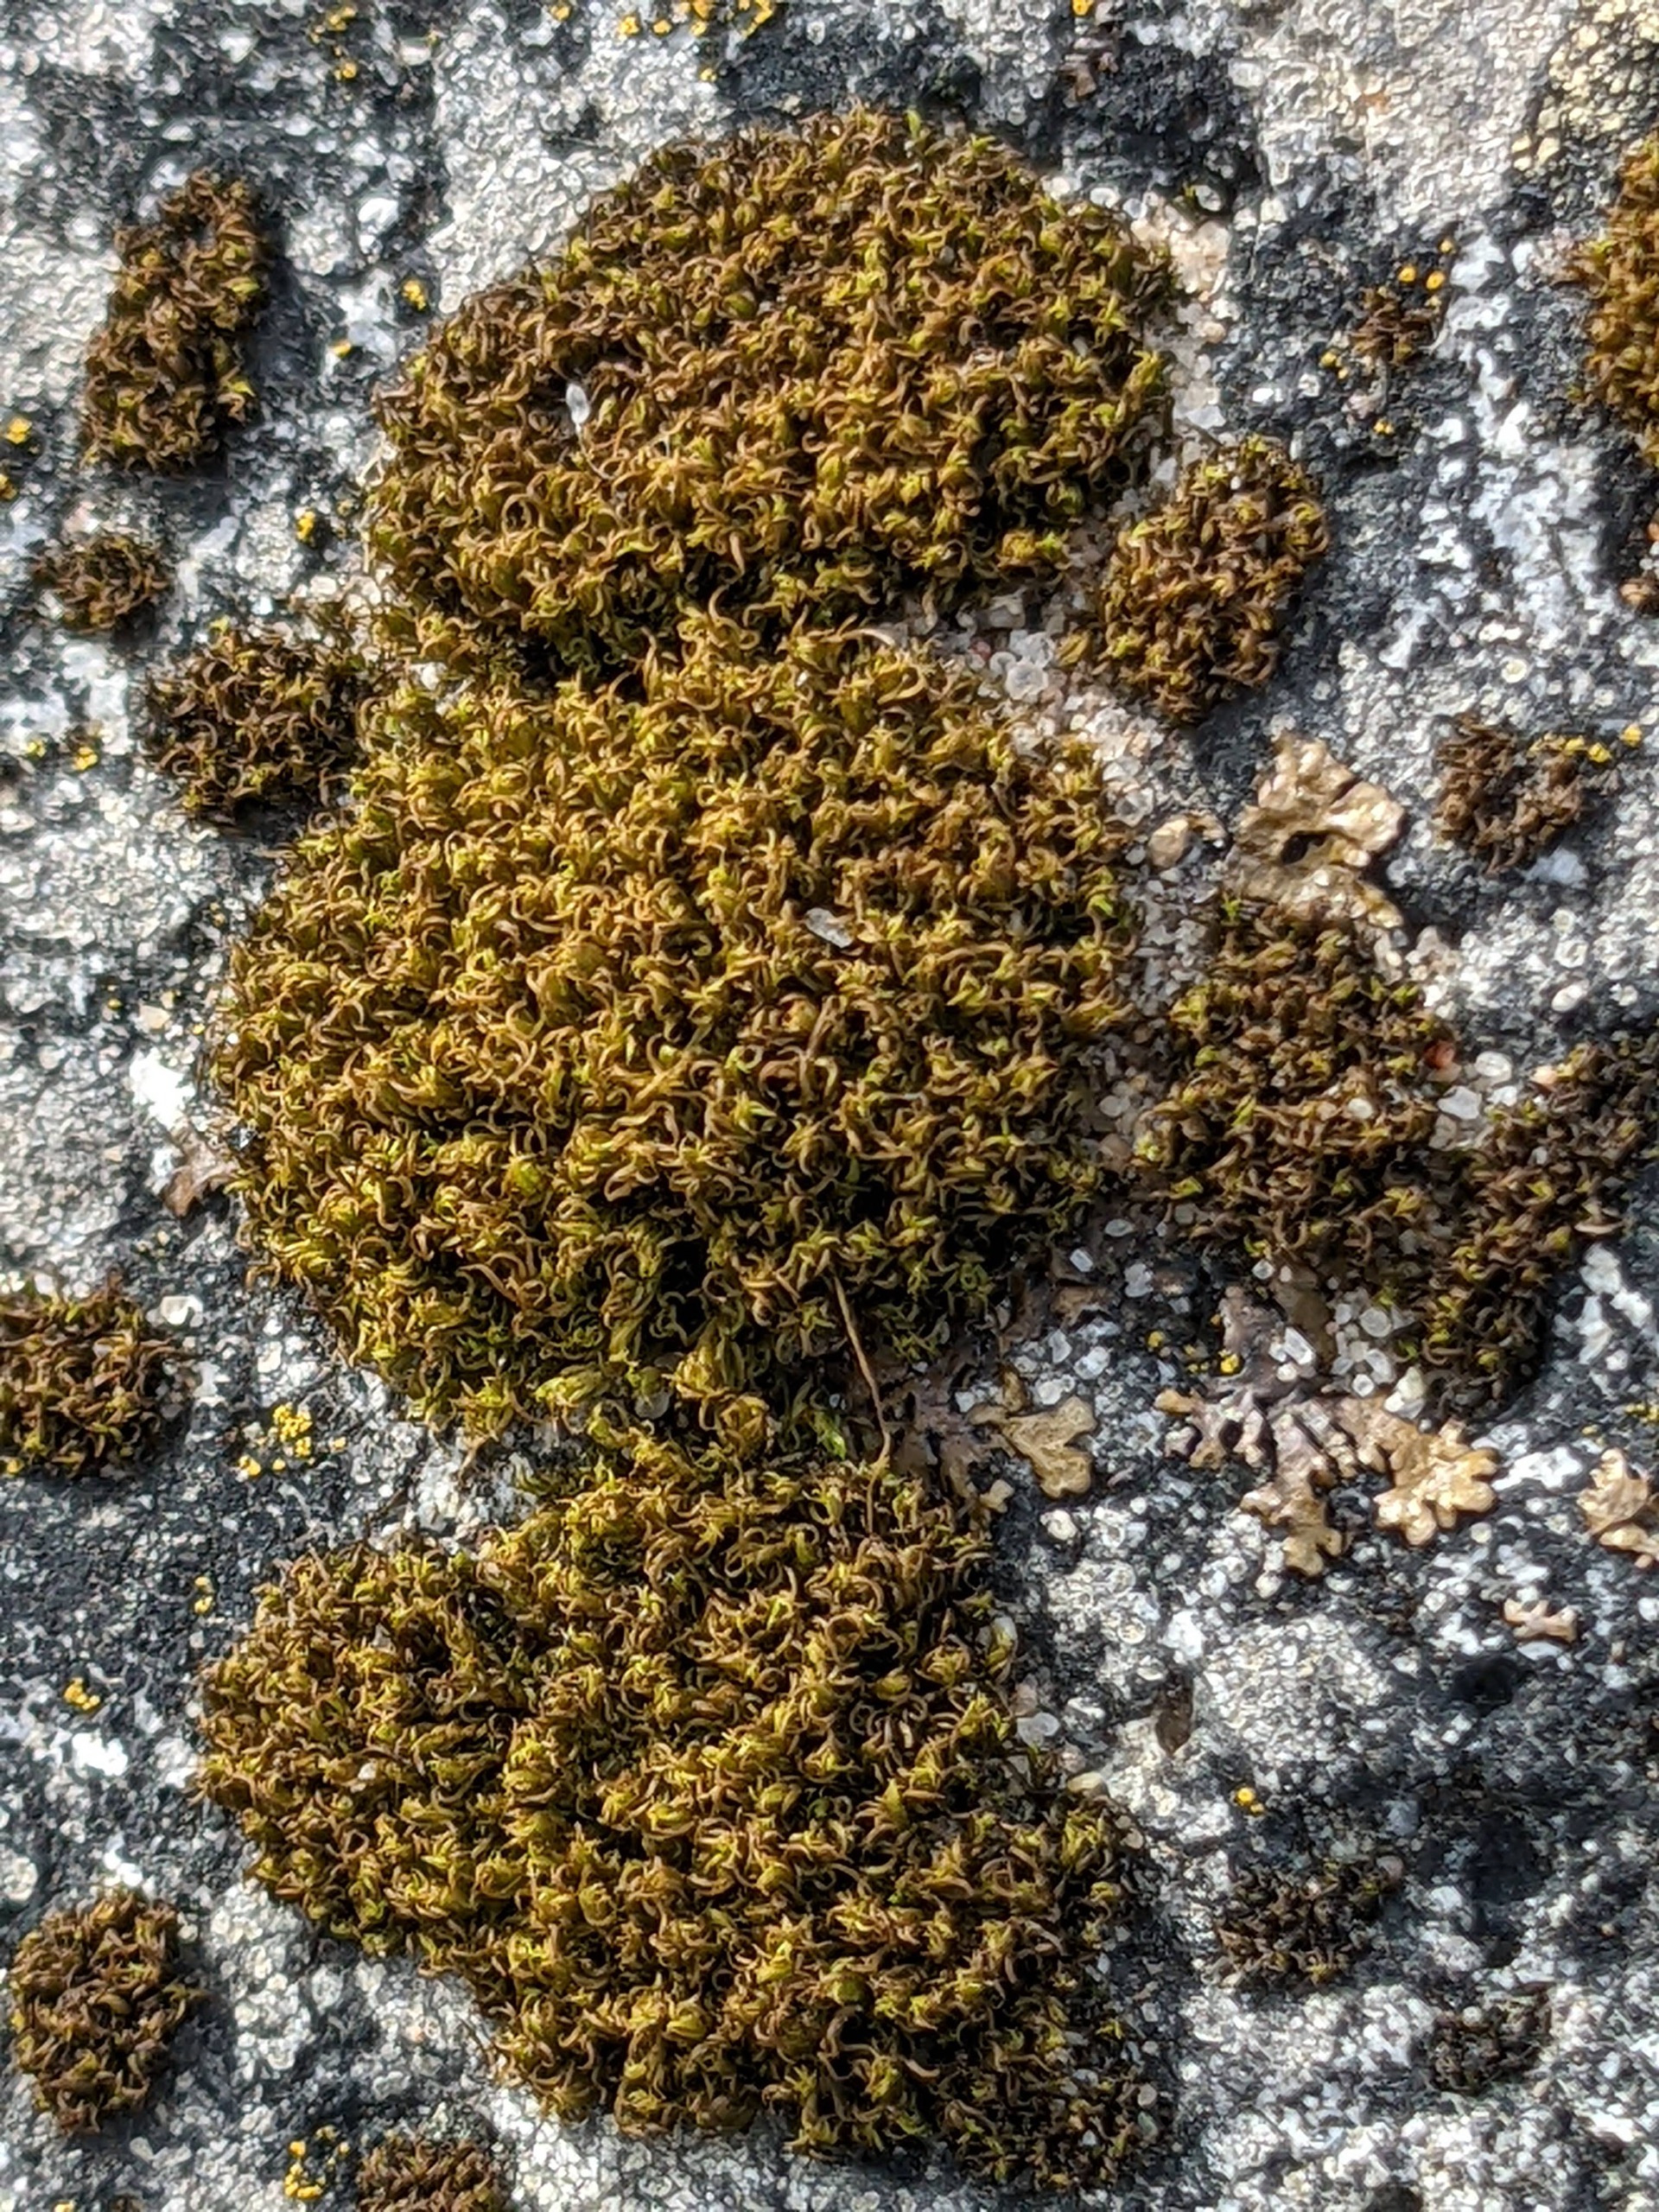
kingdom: Plantae
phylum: Bryophyta
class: Bryopsida
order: Dicranales
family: Rhabdoweisiaceae
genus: Dicranoweisia
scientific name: Dicranoweisia cirrata
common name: Almindelig krøltuemos
